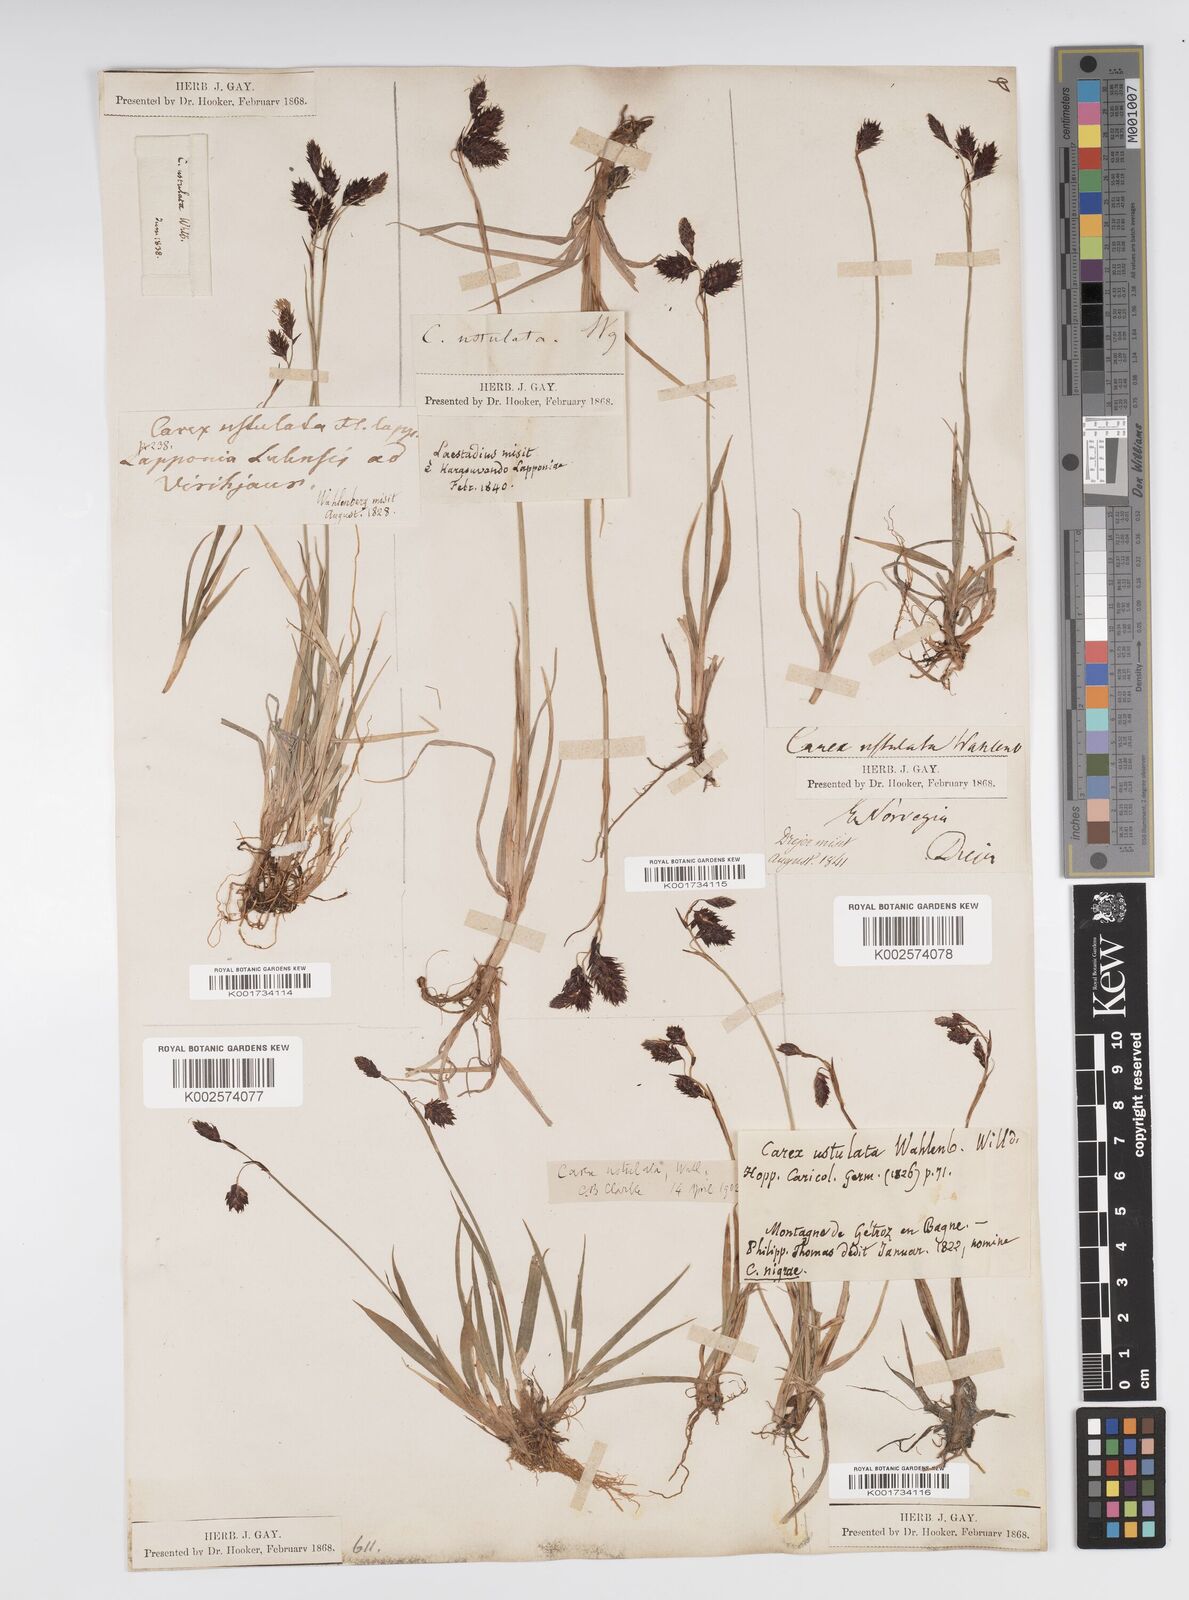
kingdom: Plantae
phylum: Tracheophyta
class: Liliopsida
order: Poales
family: Cyperaceae
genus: Carex
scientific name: Carex atrofusca
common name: Scorched alpine-sedge
